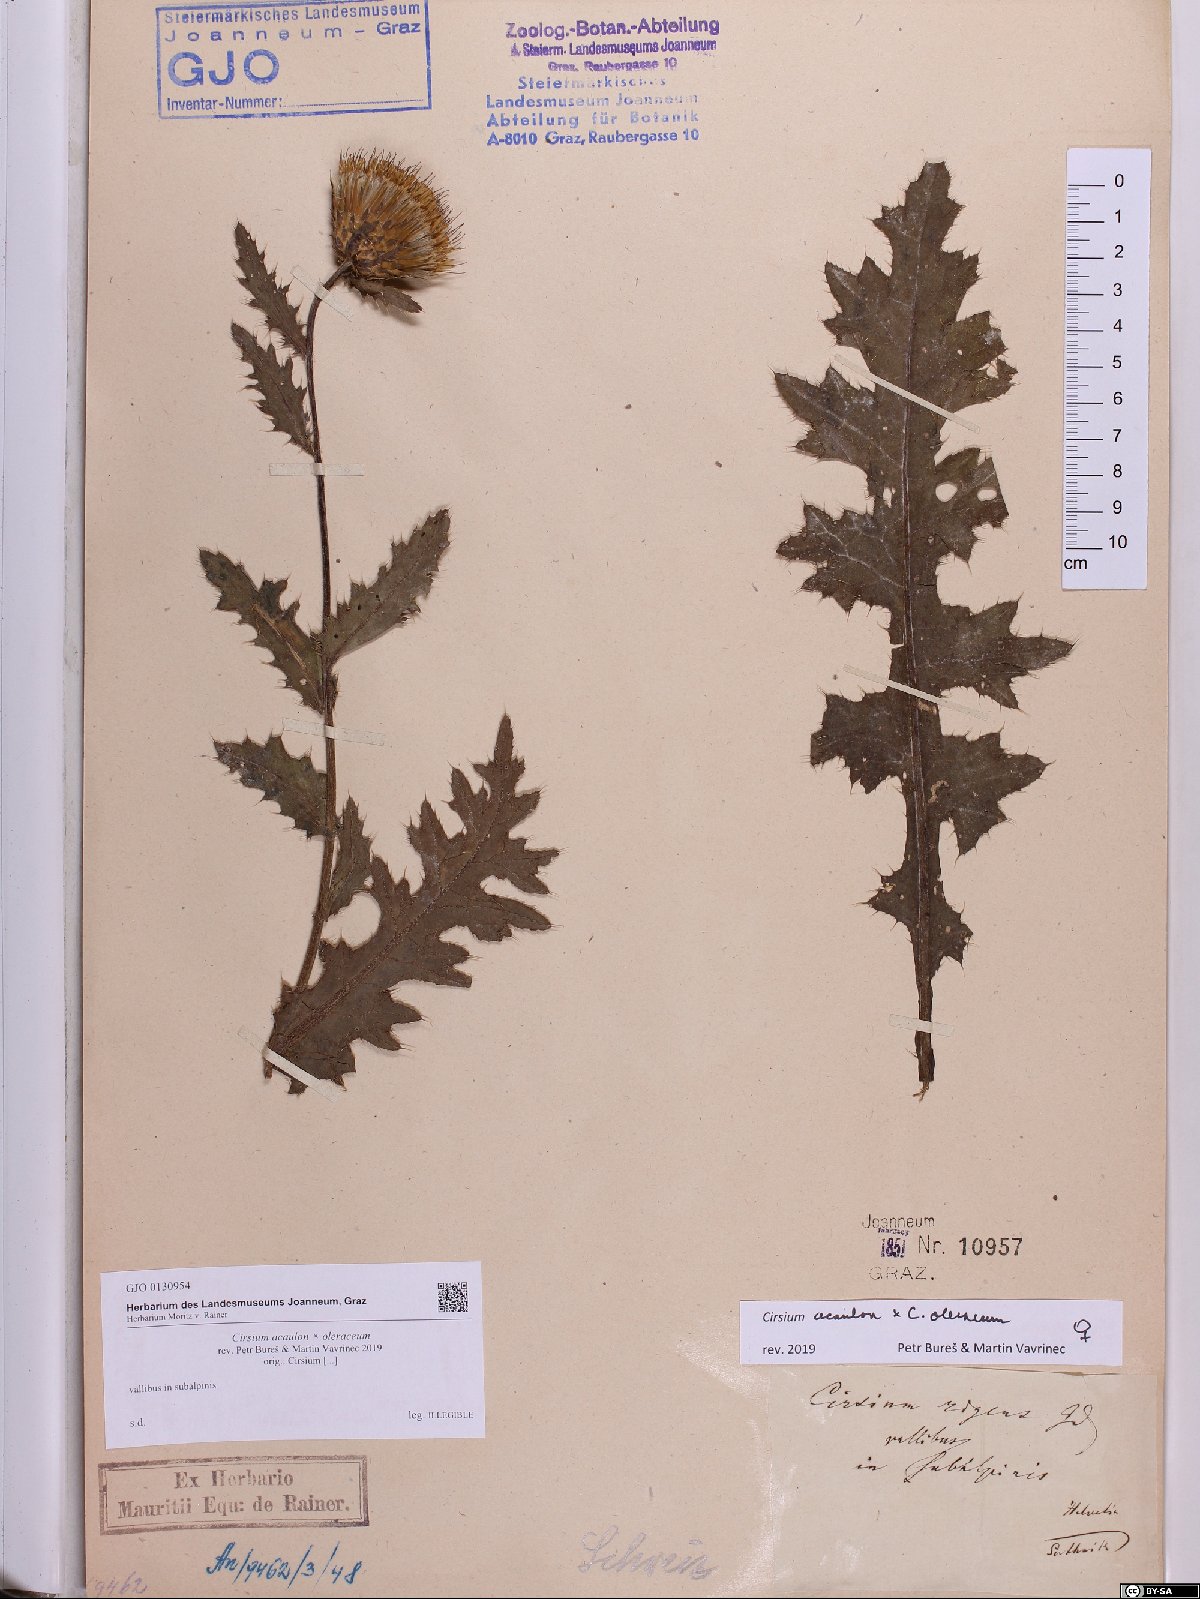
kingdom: Plantae
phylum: Tracheophyta
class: Magnoliopsida
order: Asterales
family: Asteraceae
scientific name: Asteraceae
